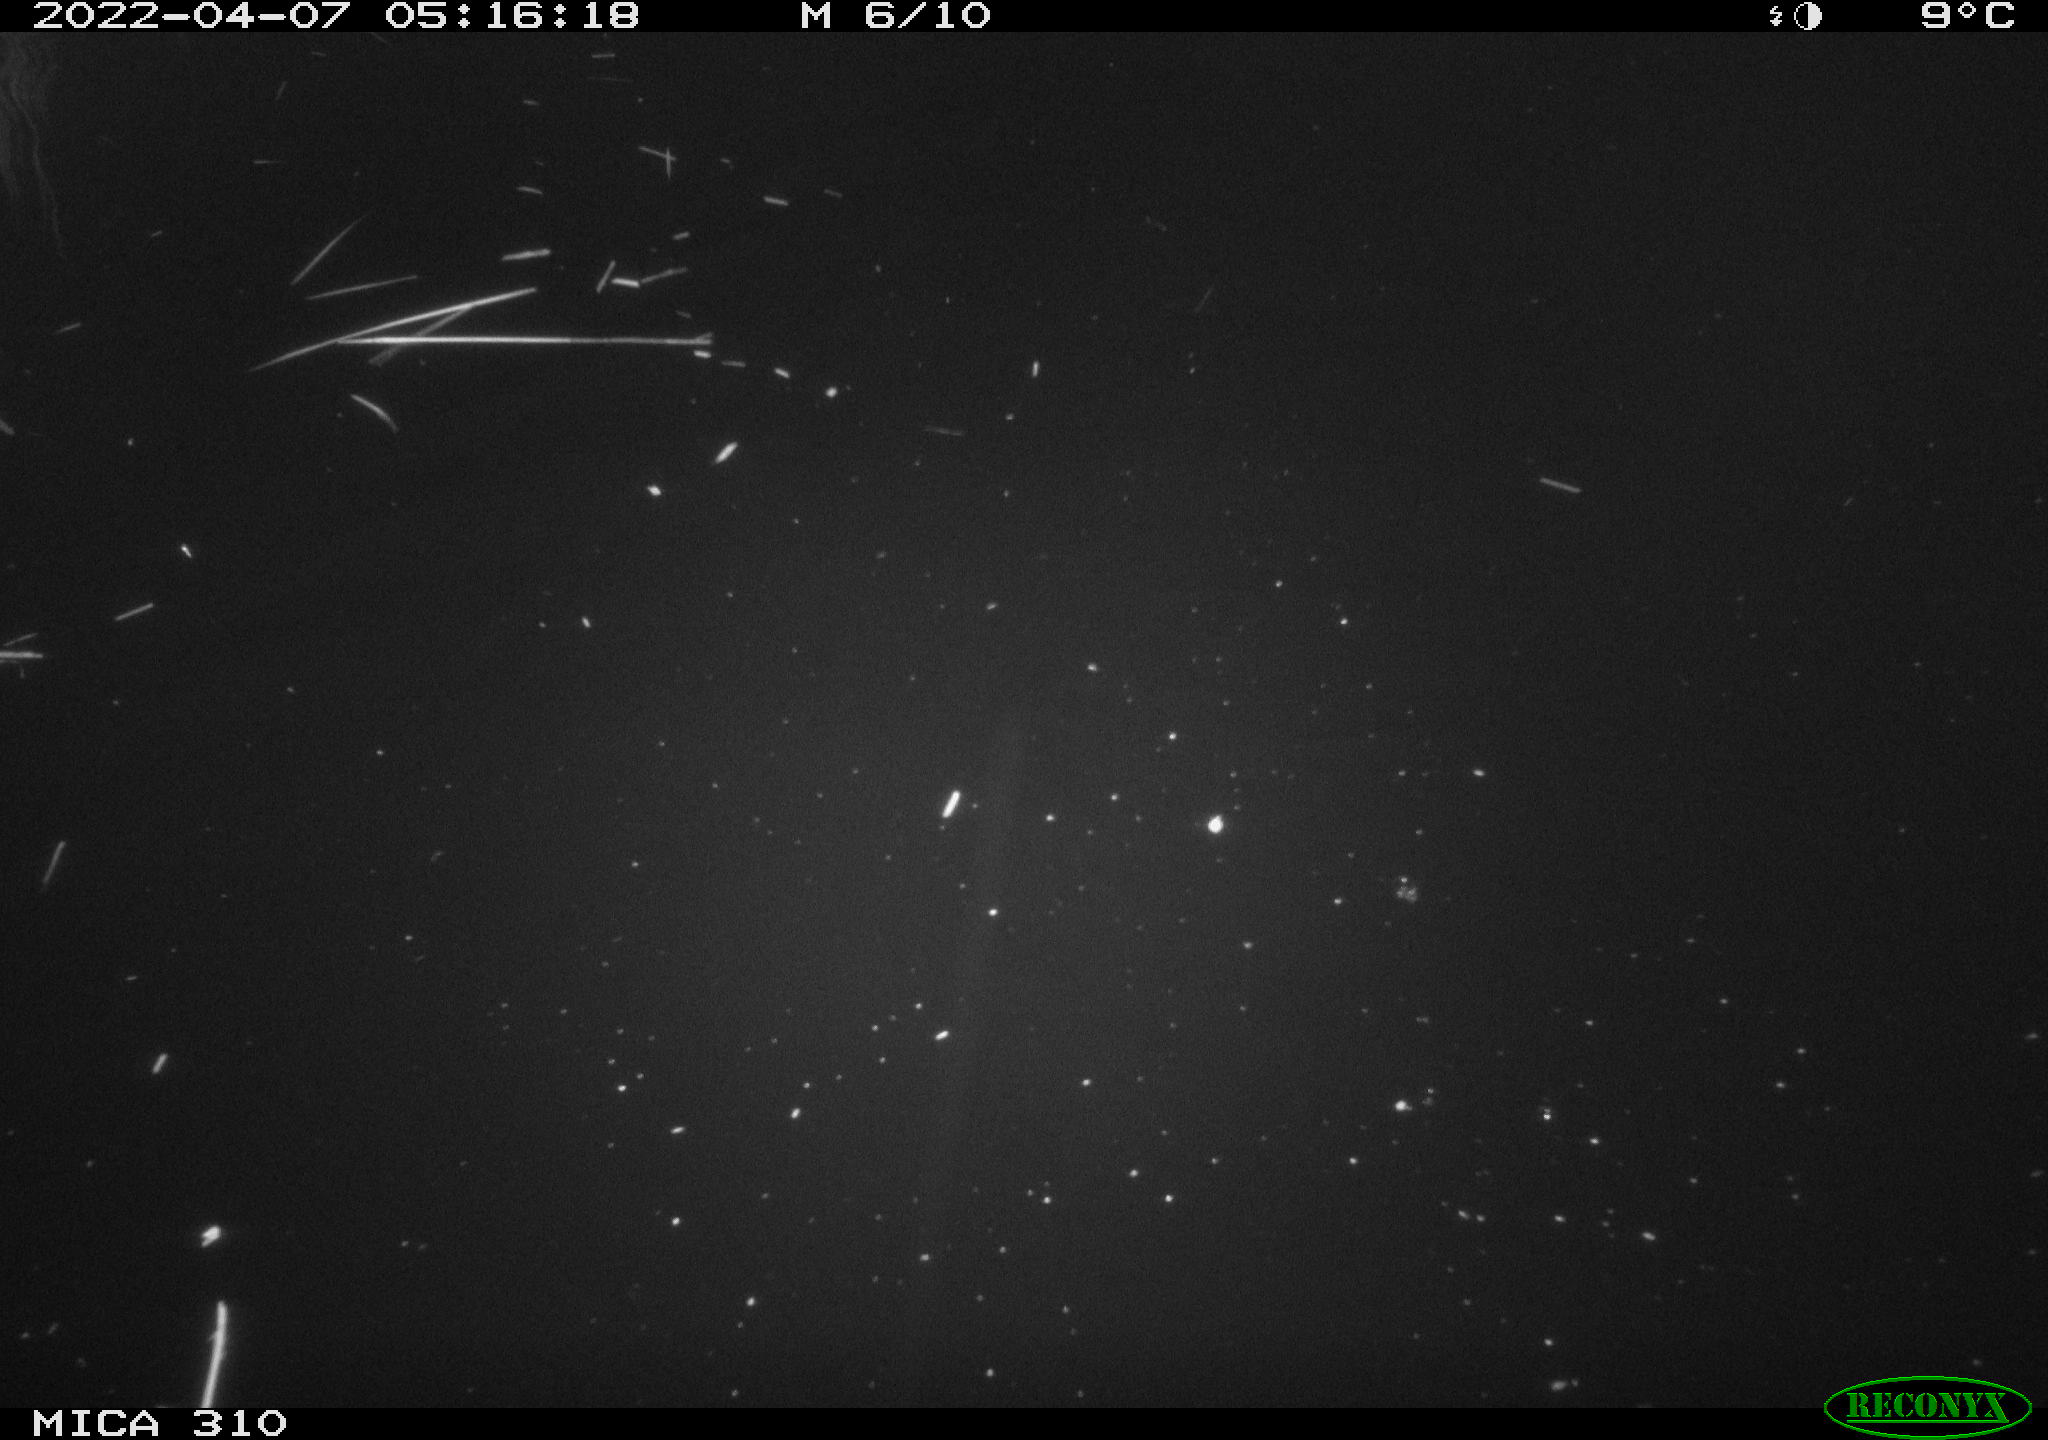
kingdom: Animalia
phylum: Chordata
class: Mammalia
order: Rodentia
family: Cricetidae
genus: Ondatra
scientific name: Ondatra zibethicus
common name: Muskrat
